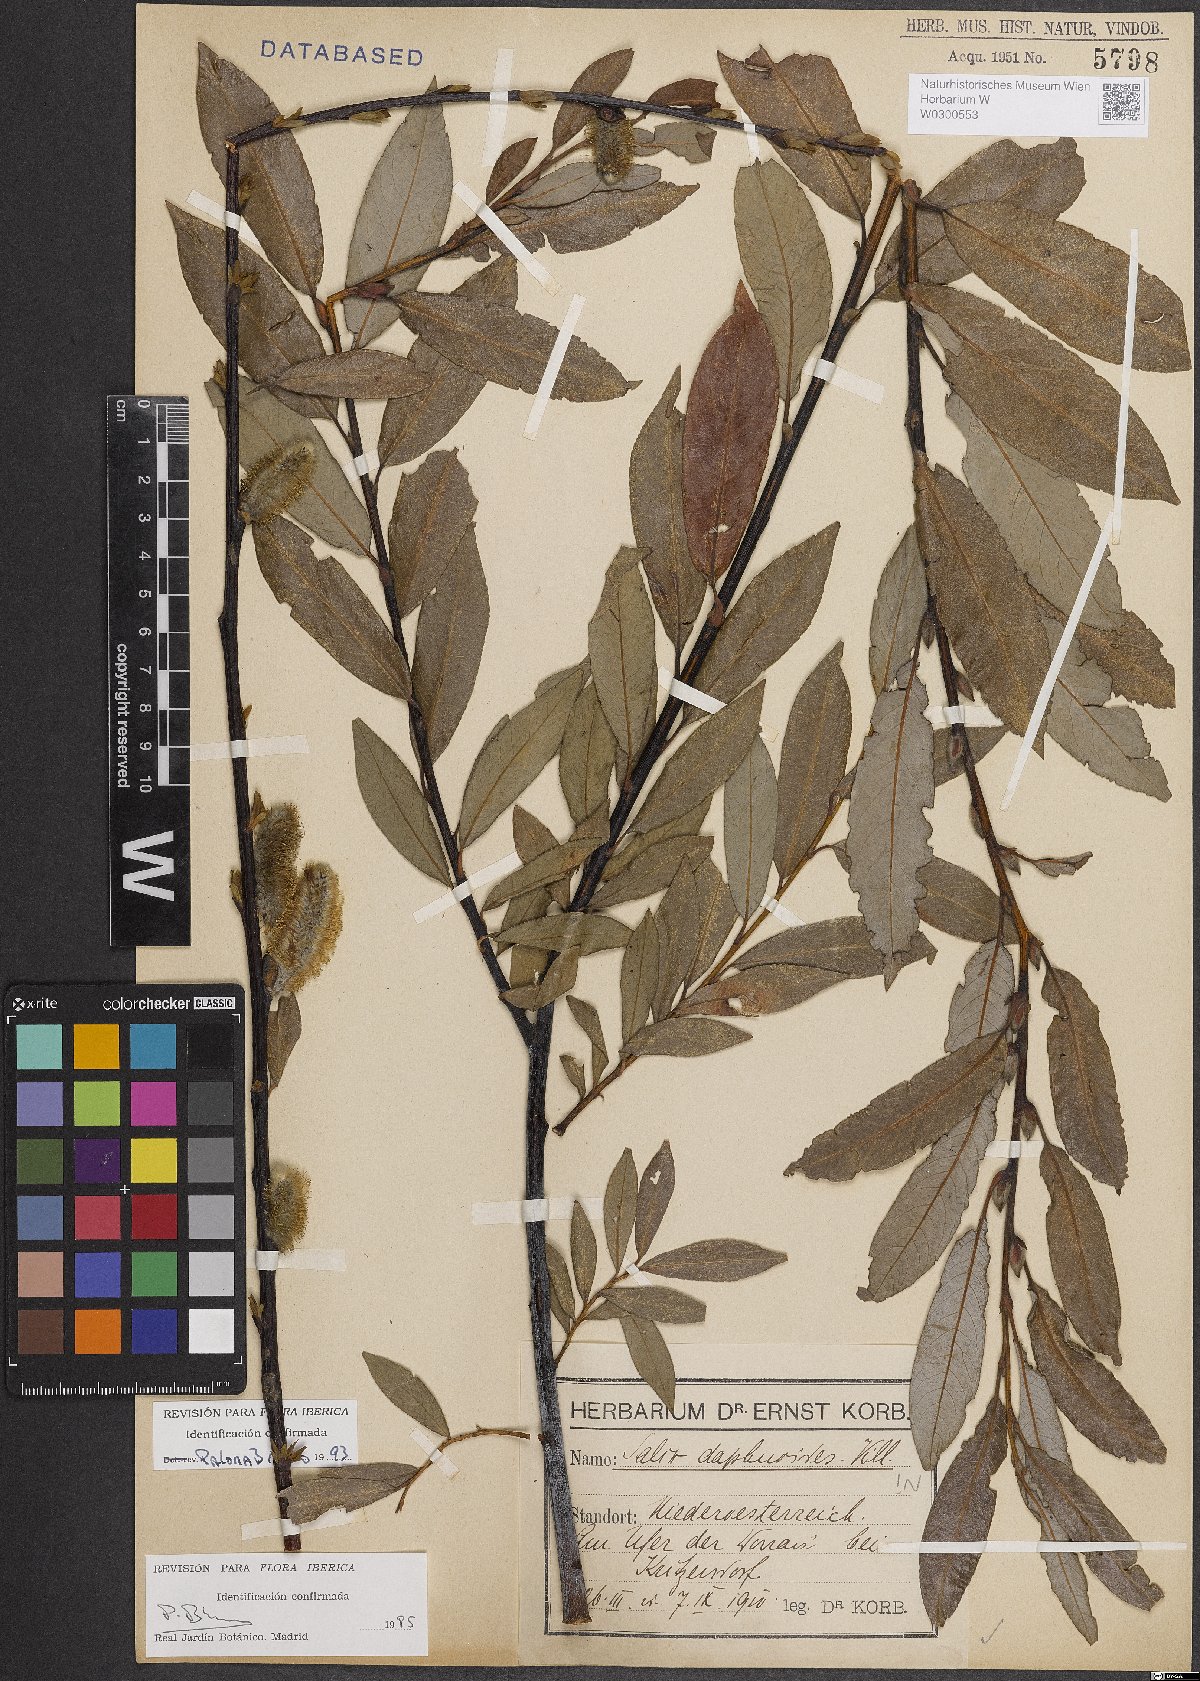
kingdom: Plantae
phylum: Tracheophyta
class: Magnoliopsida
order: Malpighiales
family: Salicaceae
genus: Salix
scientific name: Salix daphnoides
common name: European violet-willow
